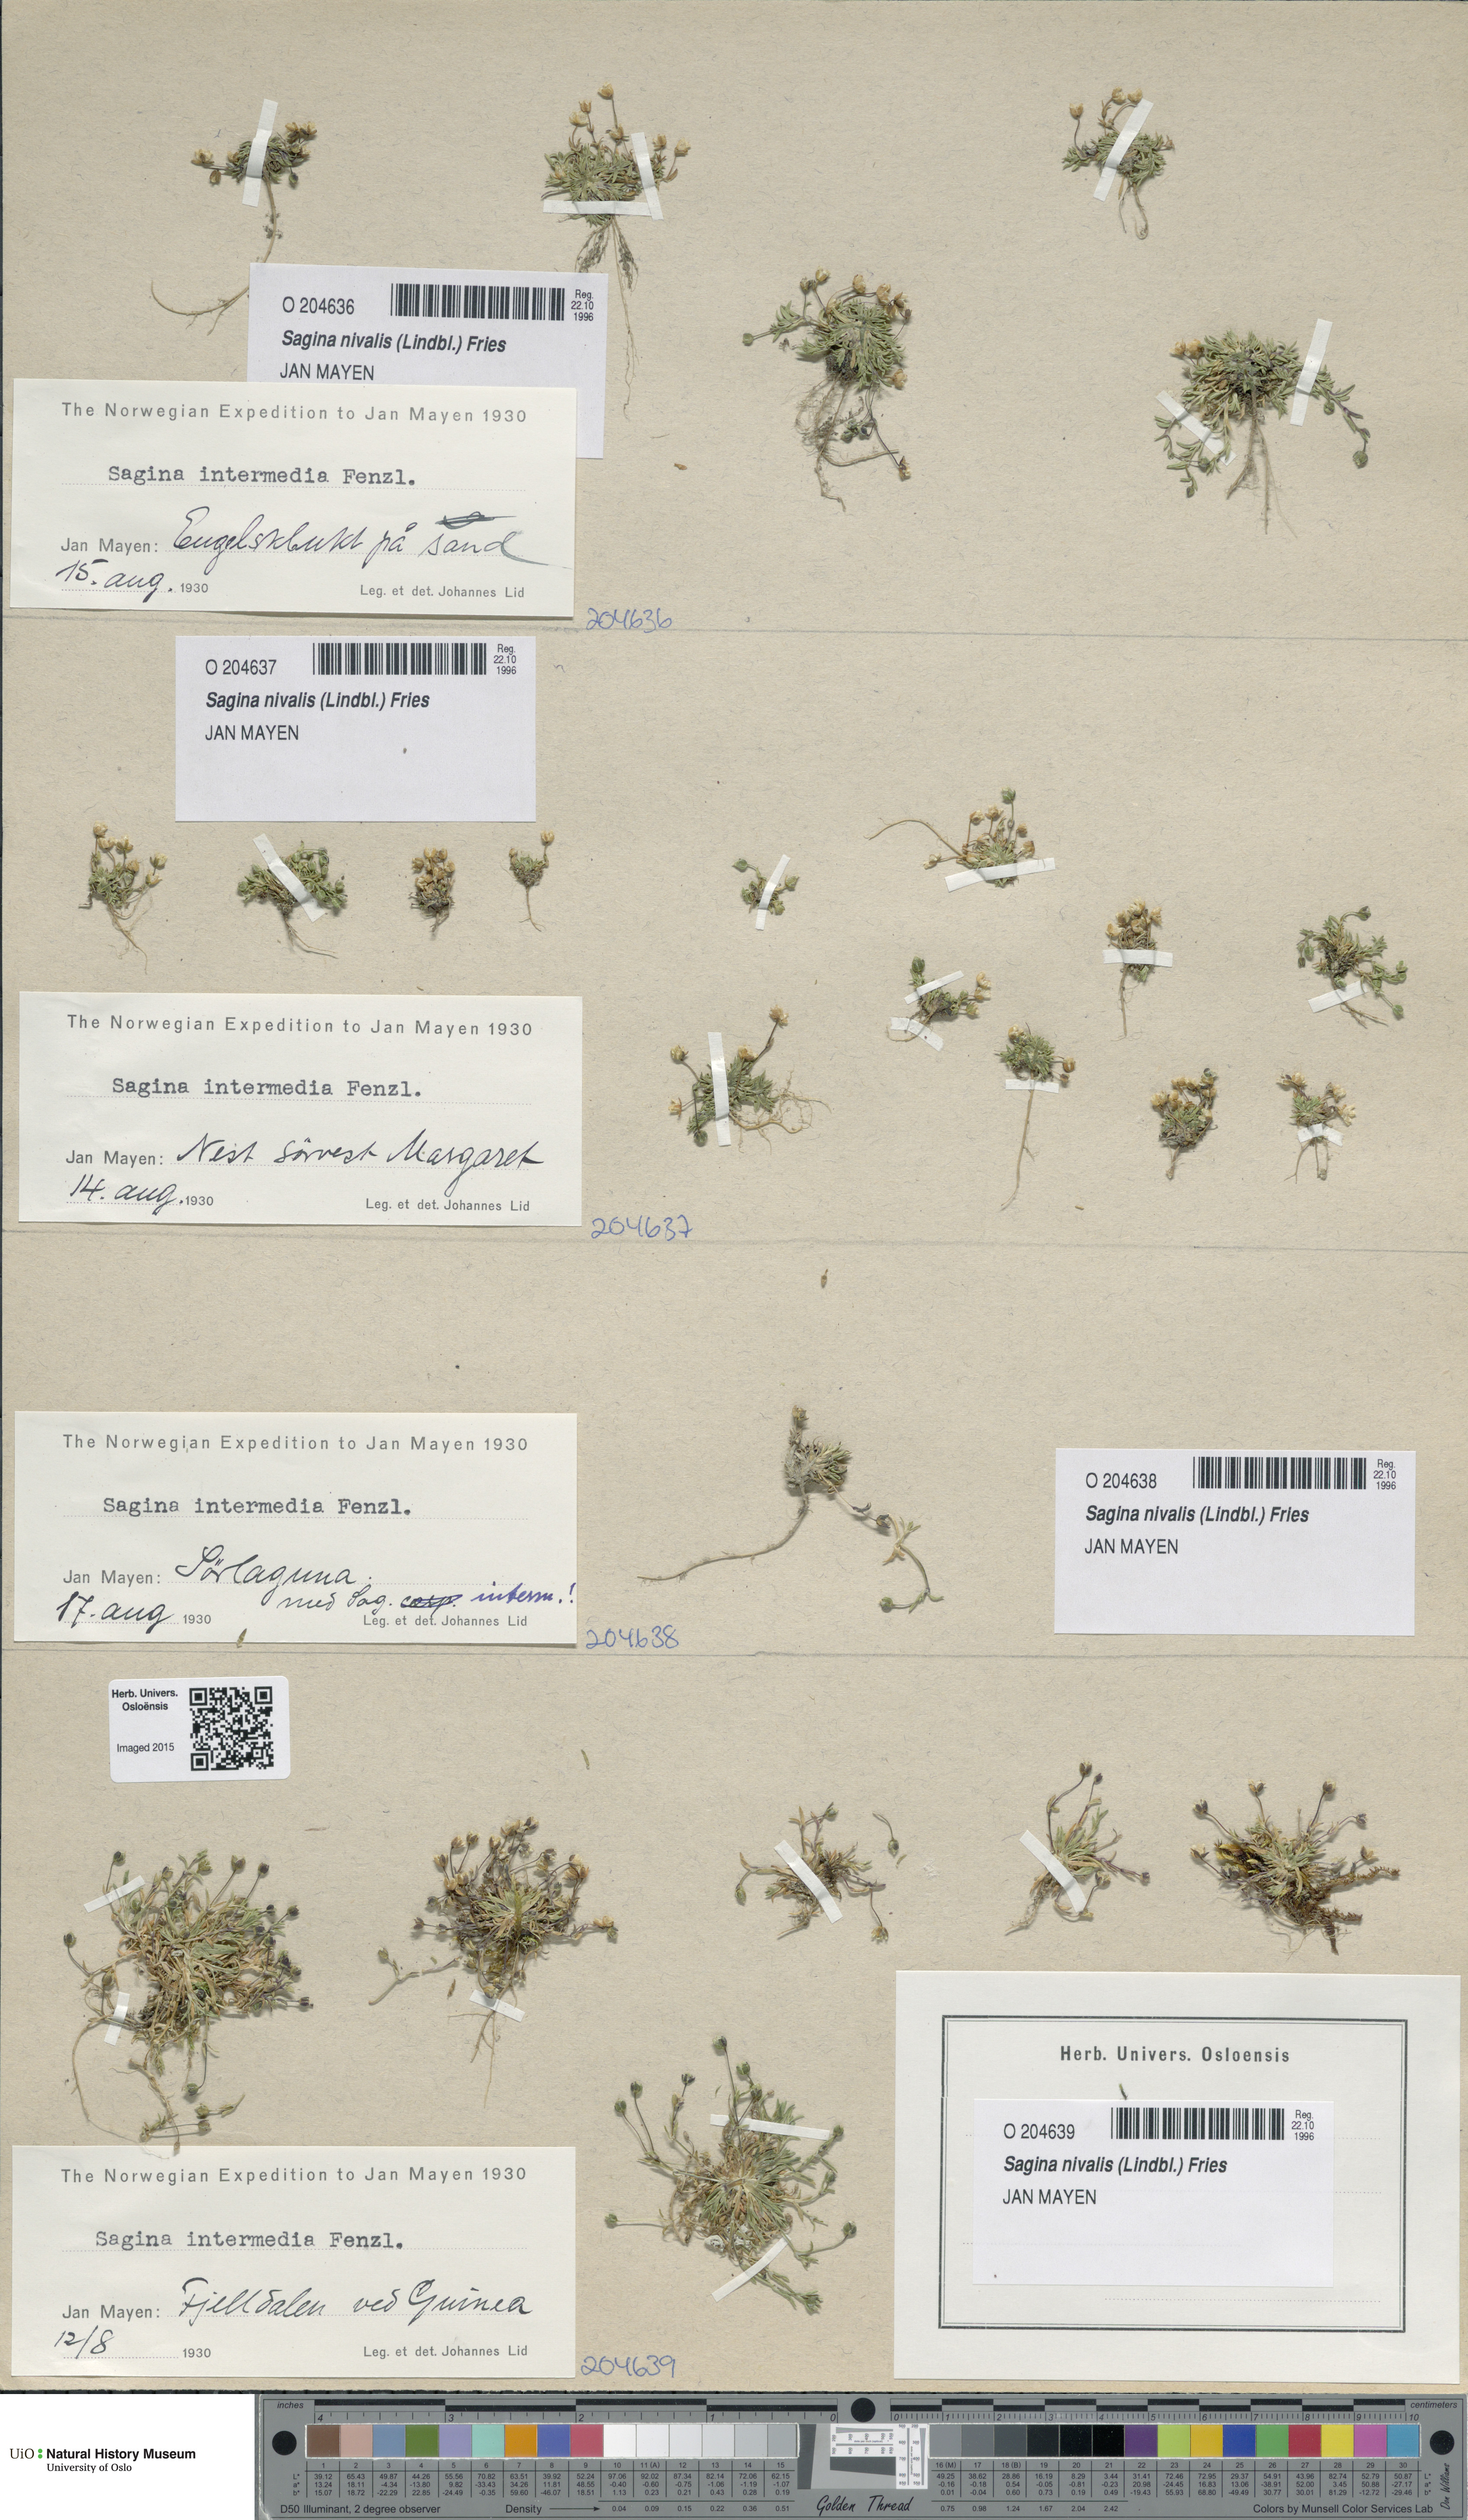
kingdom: Plantae
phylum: Tracheophyta
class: Magnoliopsida
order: Caryophyllales
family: Caryophyllaceae
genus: Sagina
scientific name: Sagina nivalis
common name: Snow pearlwort
